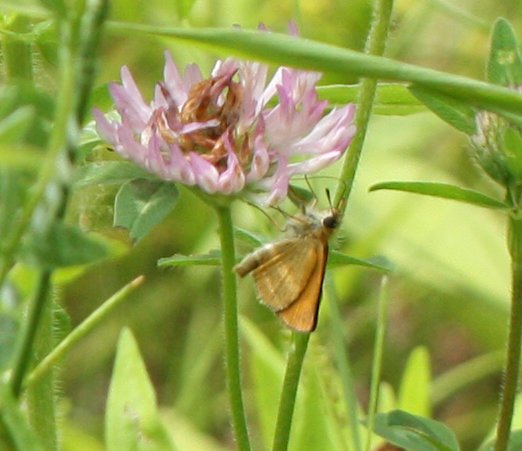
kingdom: Animalia
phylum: Arthropoda
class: Insecta
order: Lepidoptera
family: Hesperiidae
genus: Thymelicus
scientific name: Thymelicus lineola
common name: European Skipper
